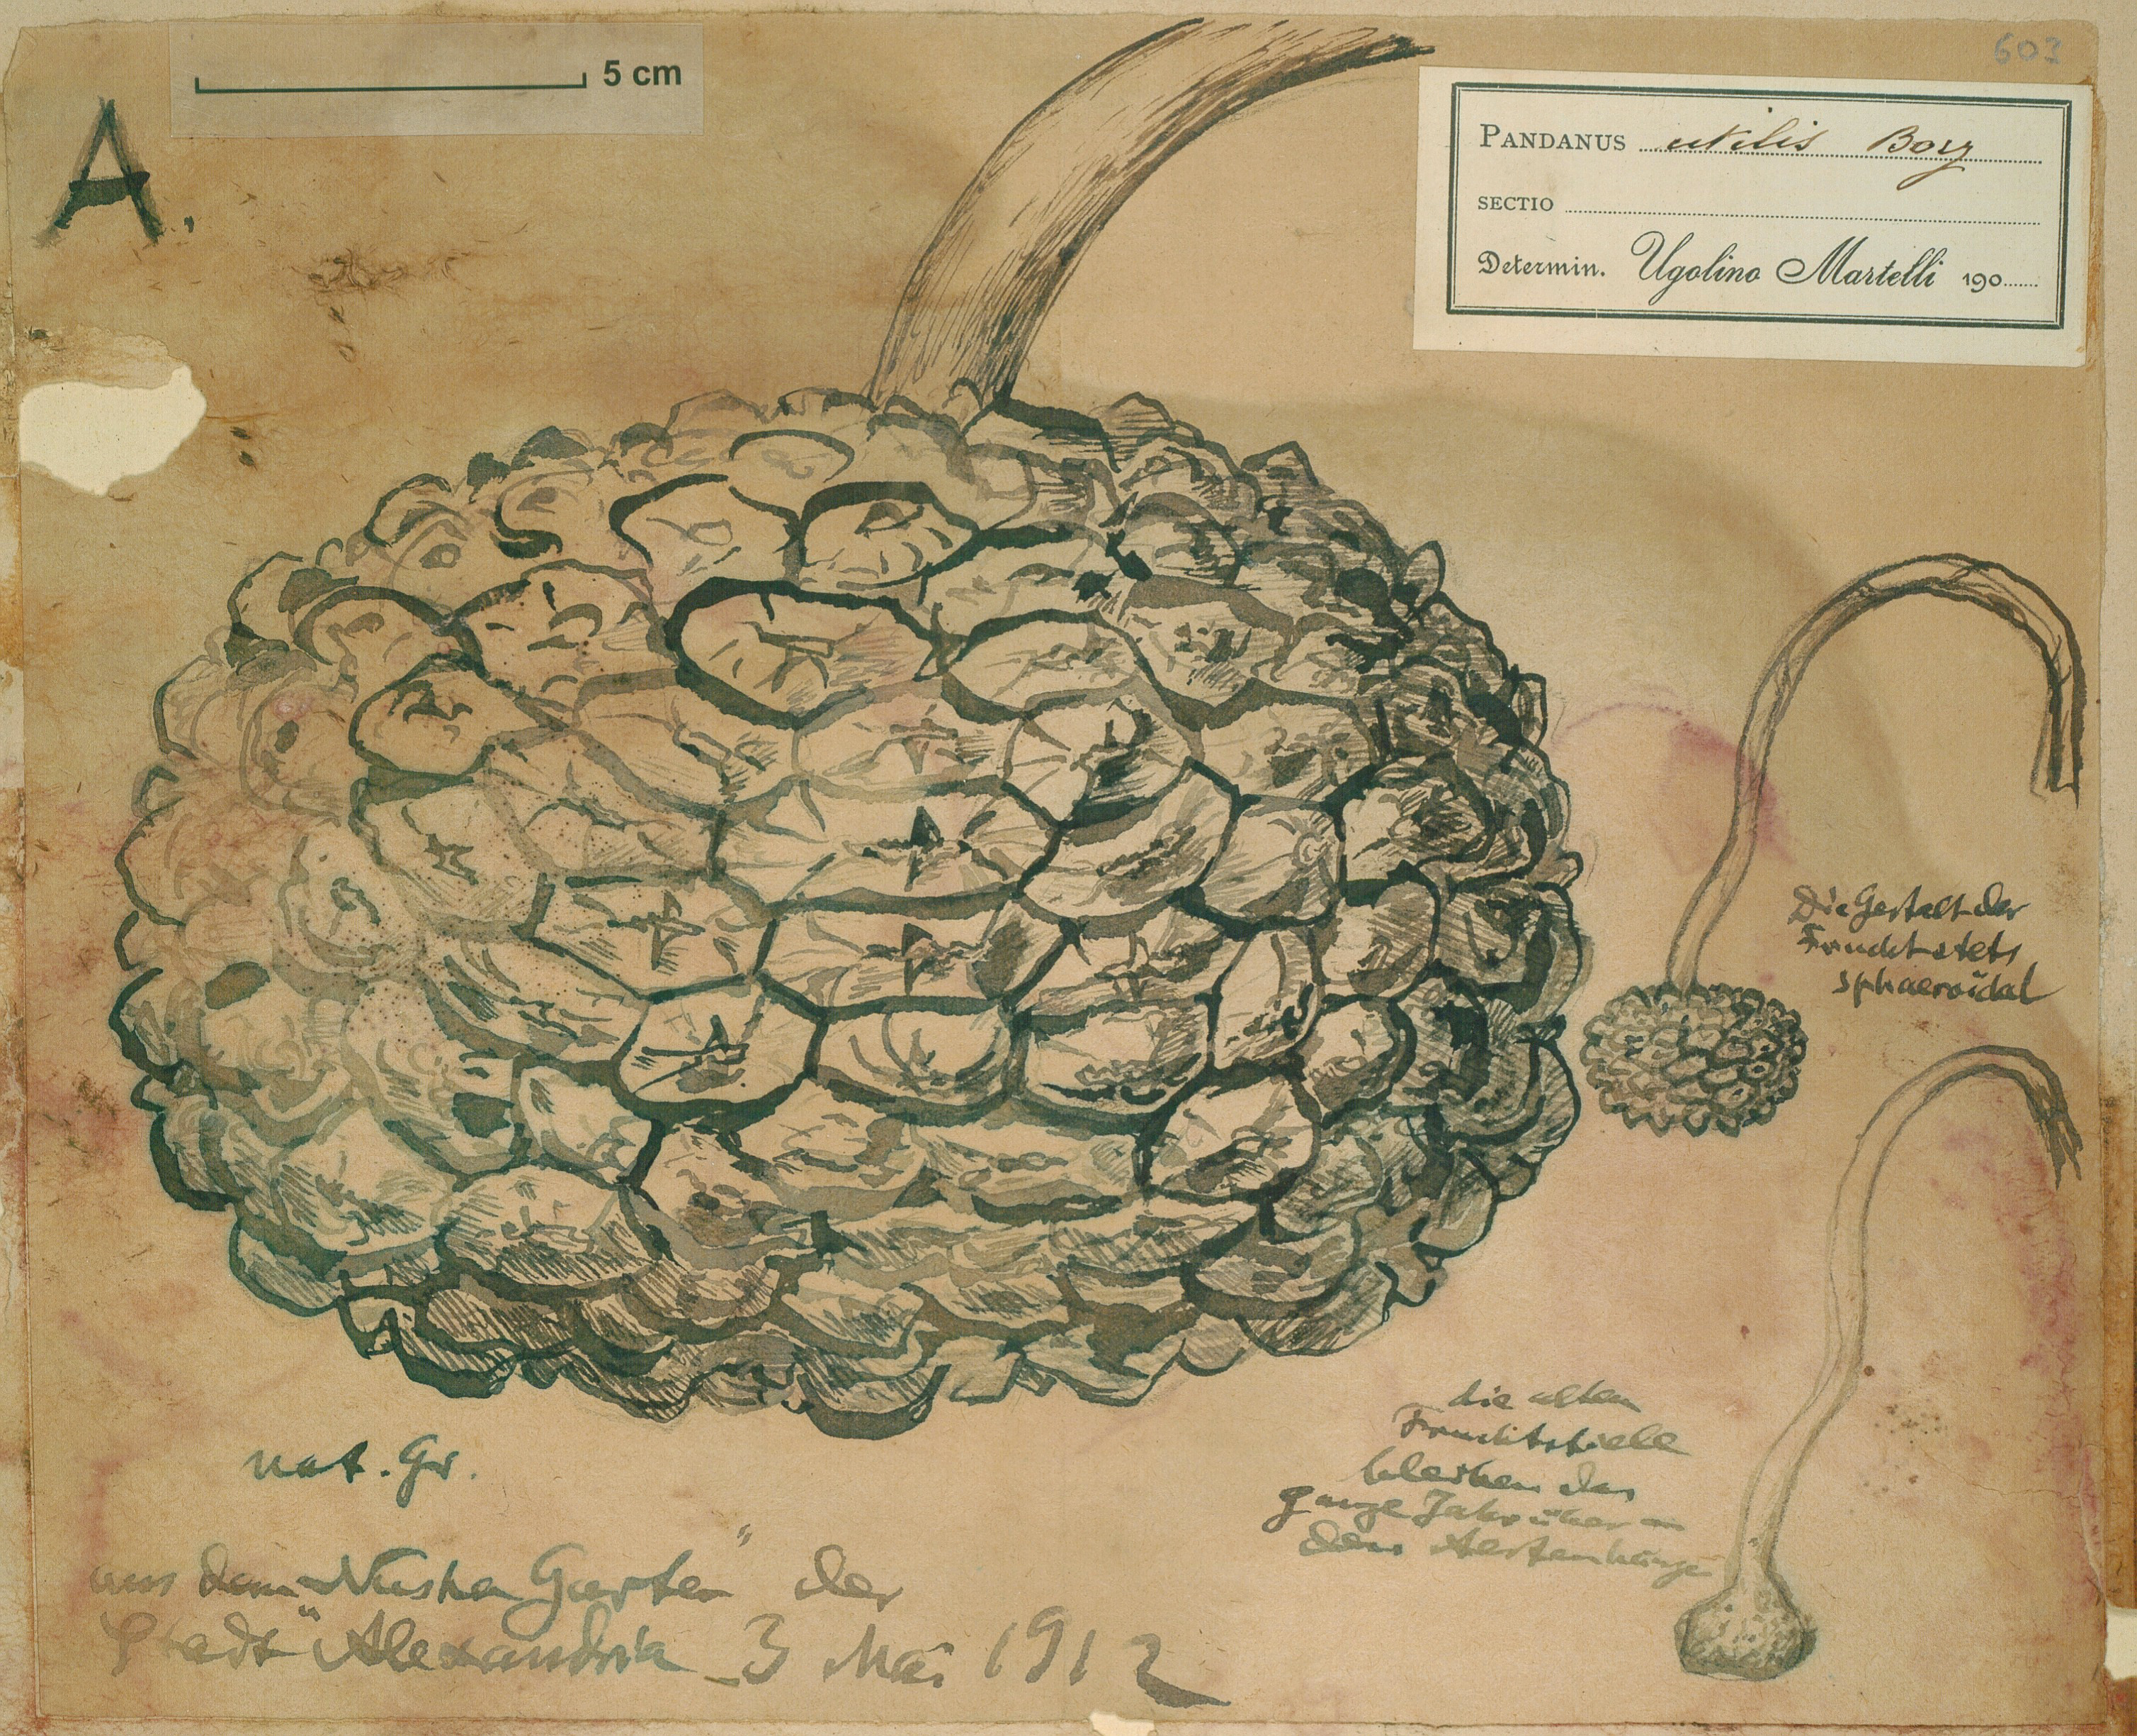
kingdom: Plantae
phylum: Tracheophyta
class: Liliopsida
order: Pandanales
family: Pandanaceae
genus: Pandanus
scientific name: Pandanus utilis
